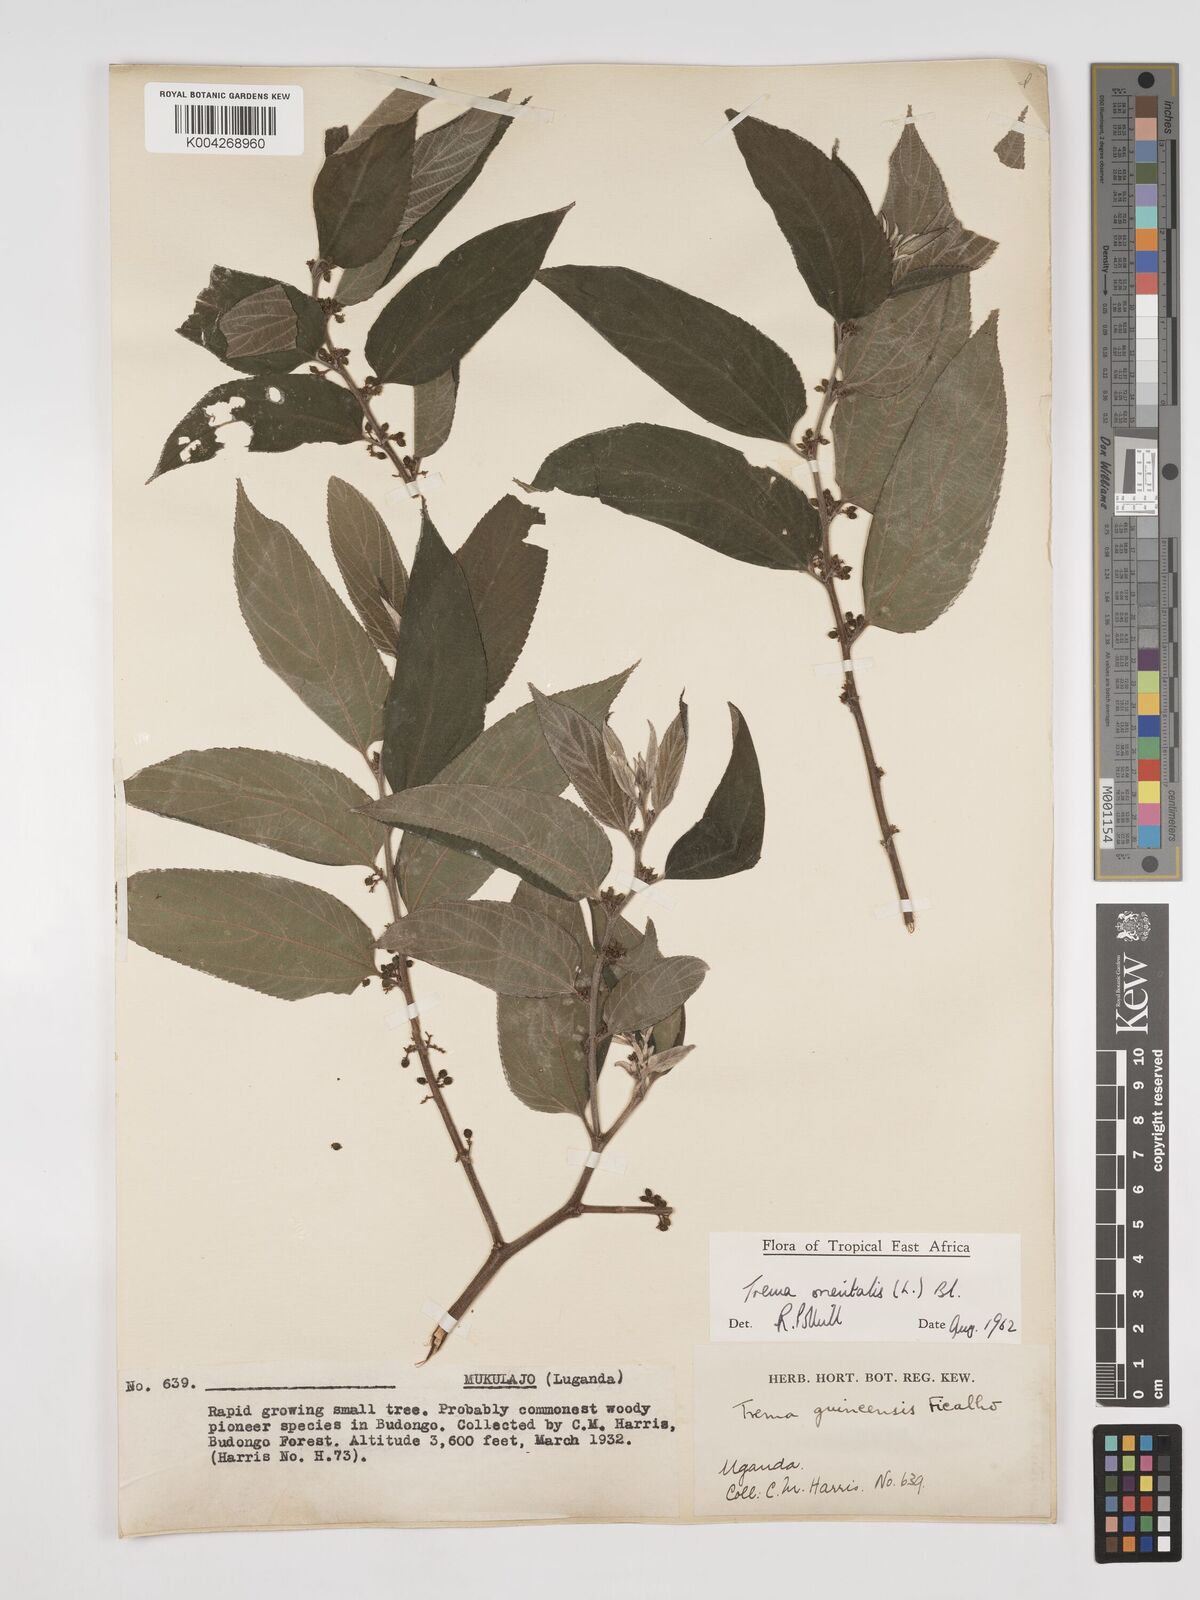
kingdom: Plantae
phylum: Tracheophyta
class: Magnoliopsida
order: Rosales
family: Cannabaceae
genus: Trema
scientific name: Trema orientale
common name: Indian charcoal tree
